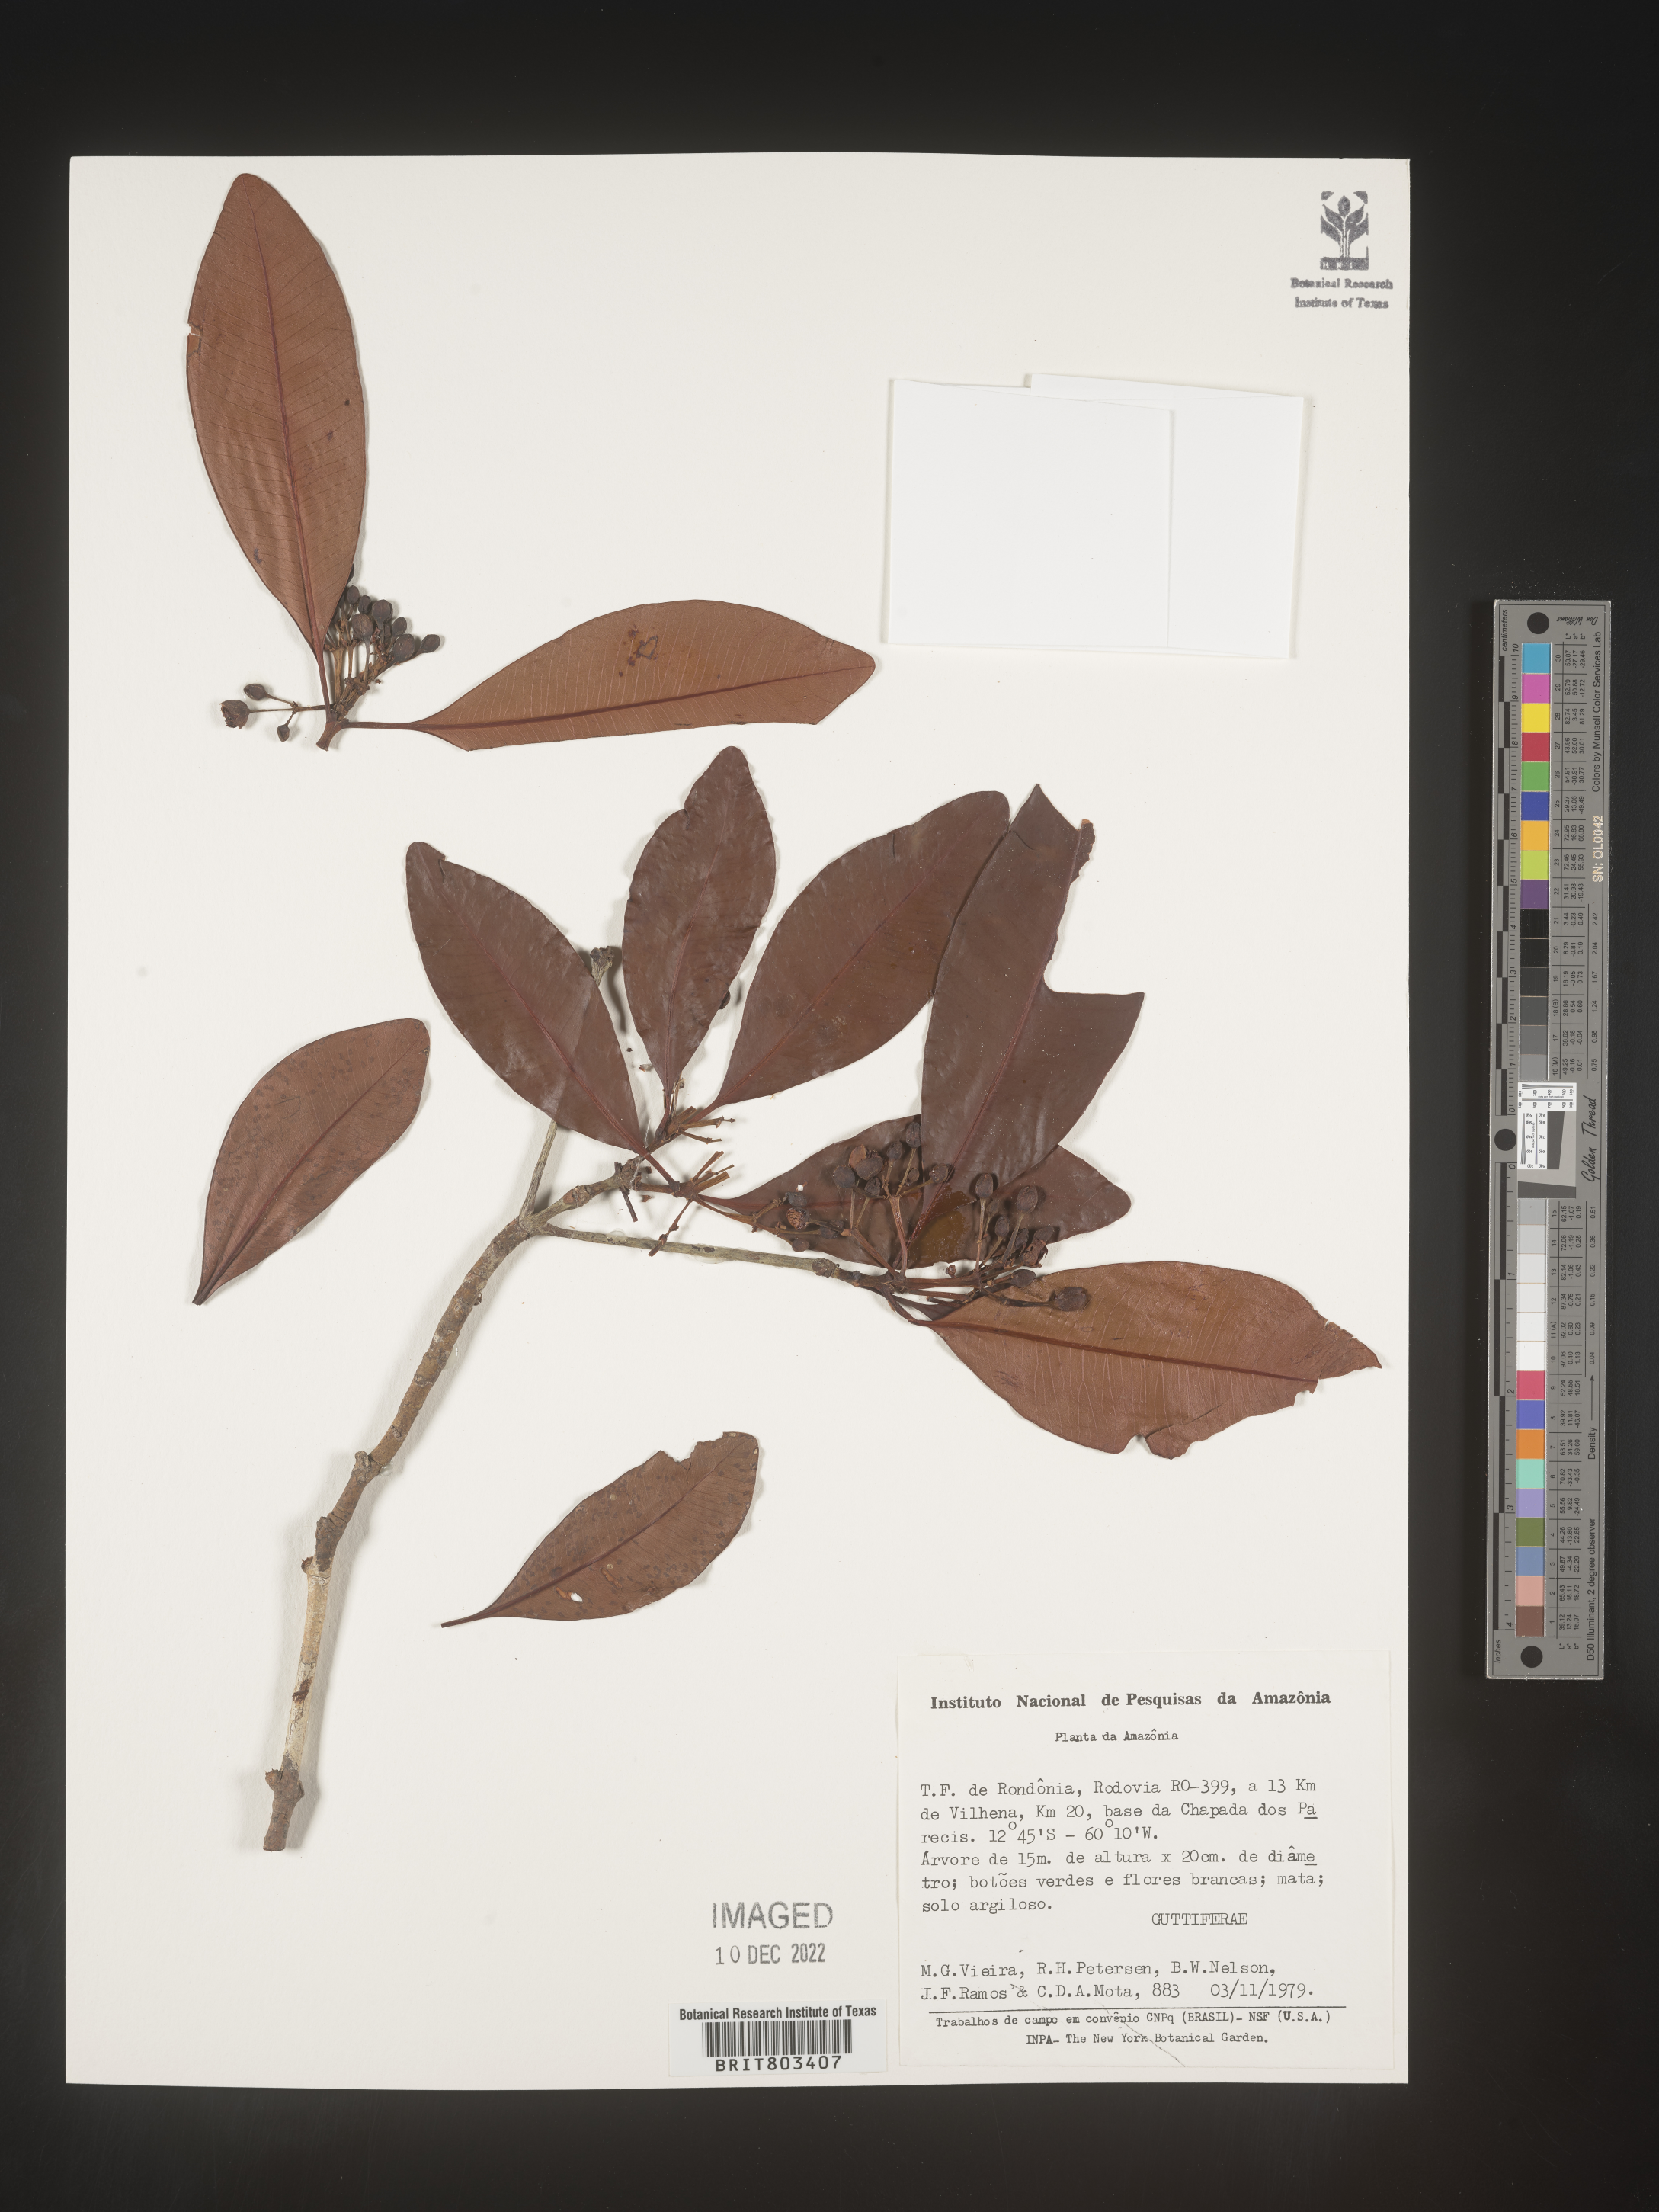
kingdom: Plantae
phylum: Tracheophyta
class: Magnoliopsida
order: Malpighiales
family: Clusiaceae
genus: Tovomita
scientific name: Tovomita
